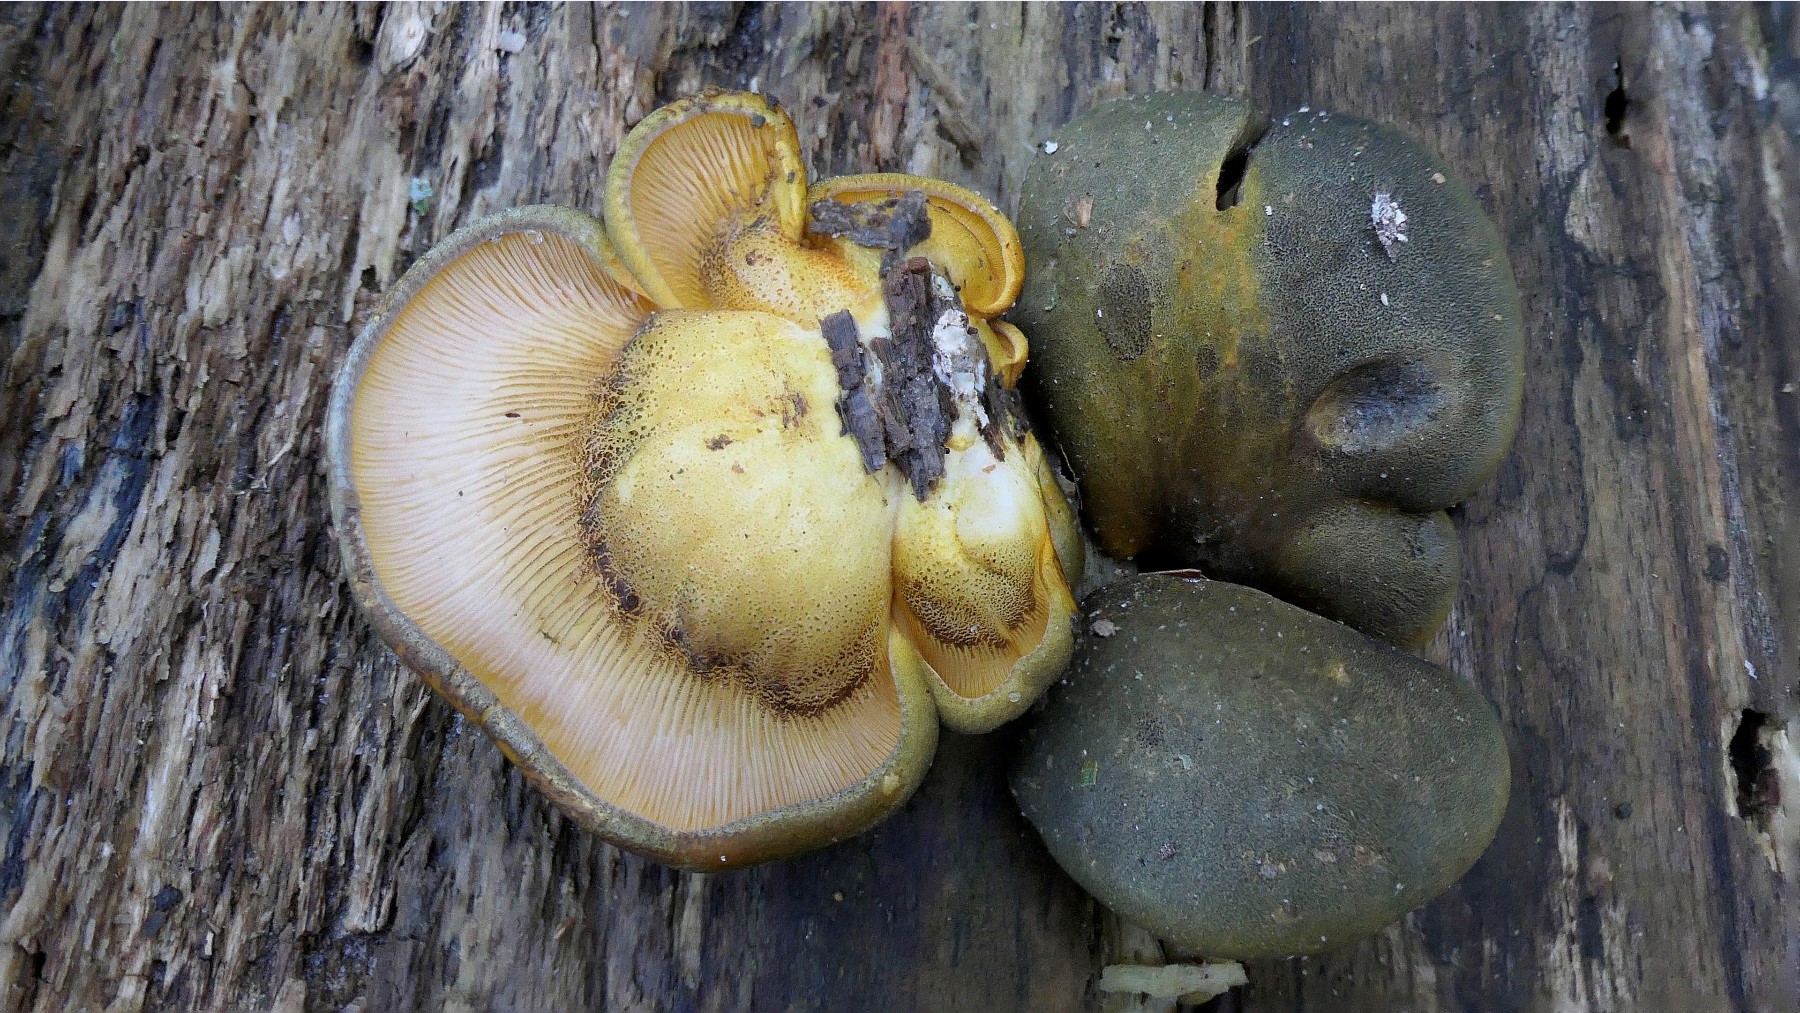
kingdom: Fungi
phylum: Basidiomycota
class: Agaricomycetes
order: Agaricales
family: Sarcomyxaceae
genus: Sarcomyxa
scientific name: Sarcomyxa serotina
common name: gummihat
